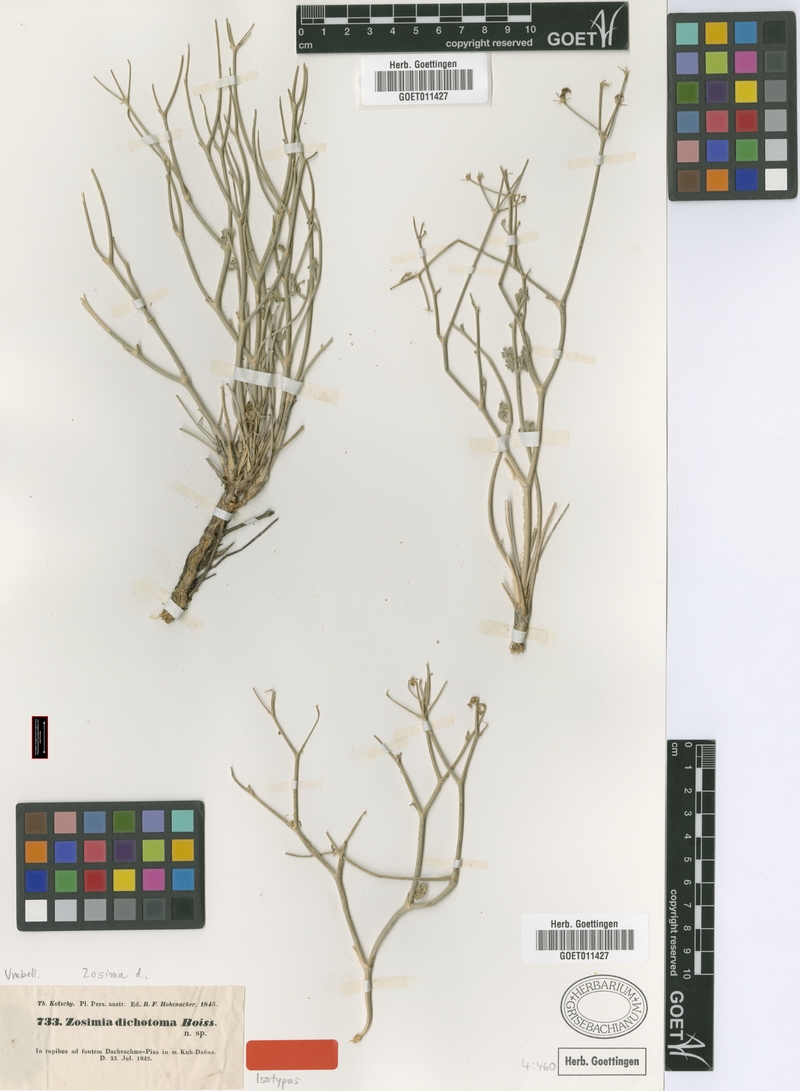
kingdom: Plantae
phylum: Tracheophyta
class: Magnoliopsida
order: Apiales
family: Apiaceae
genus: Semenovia
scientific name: Semenovia dichotoma
